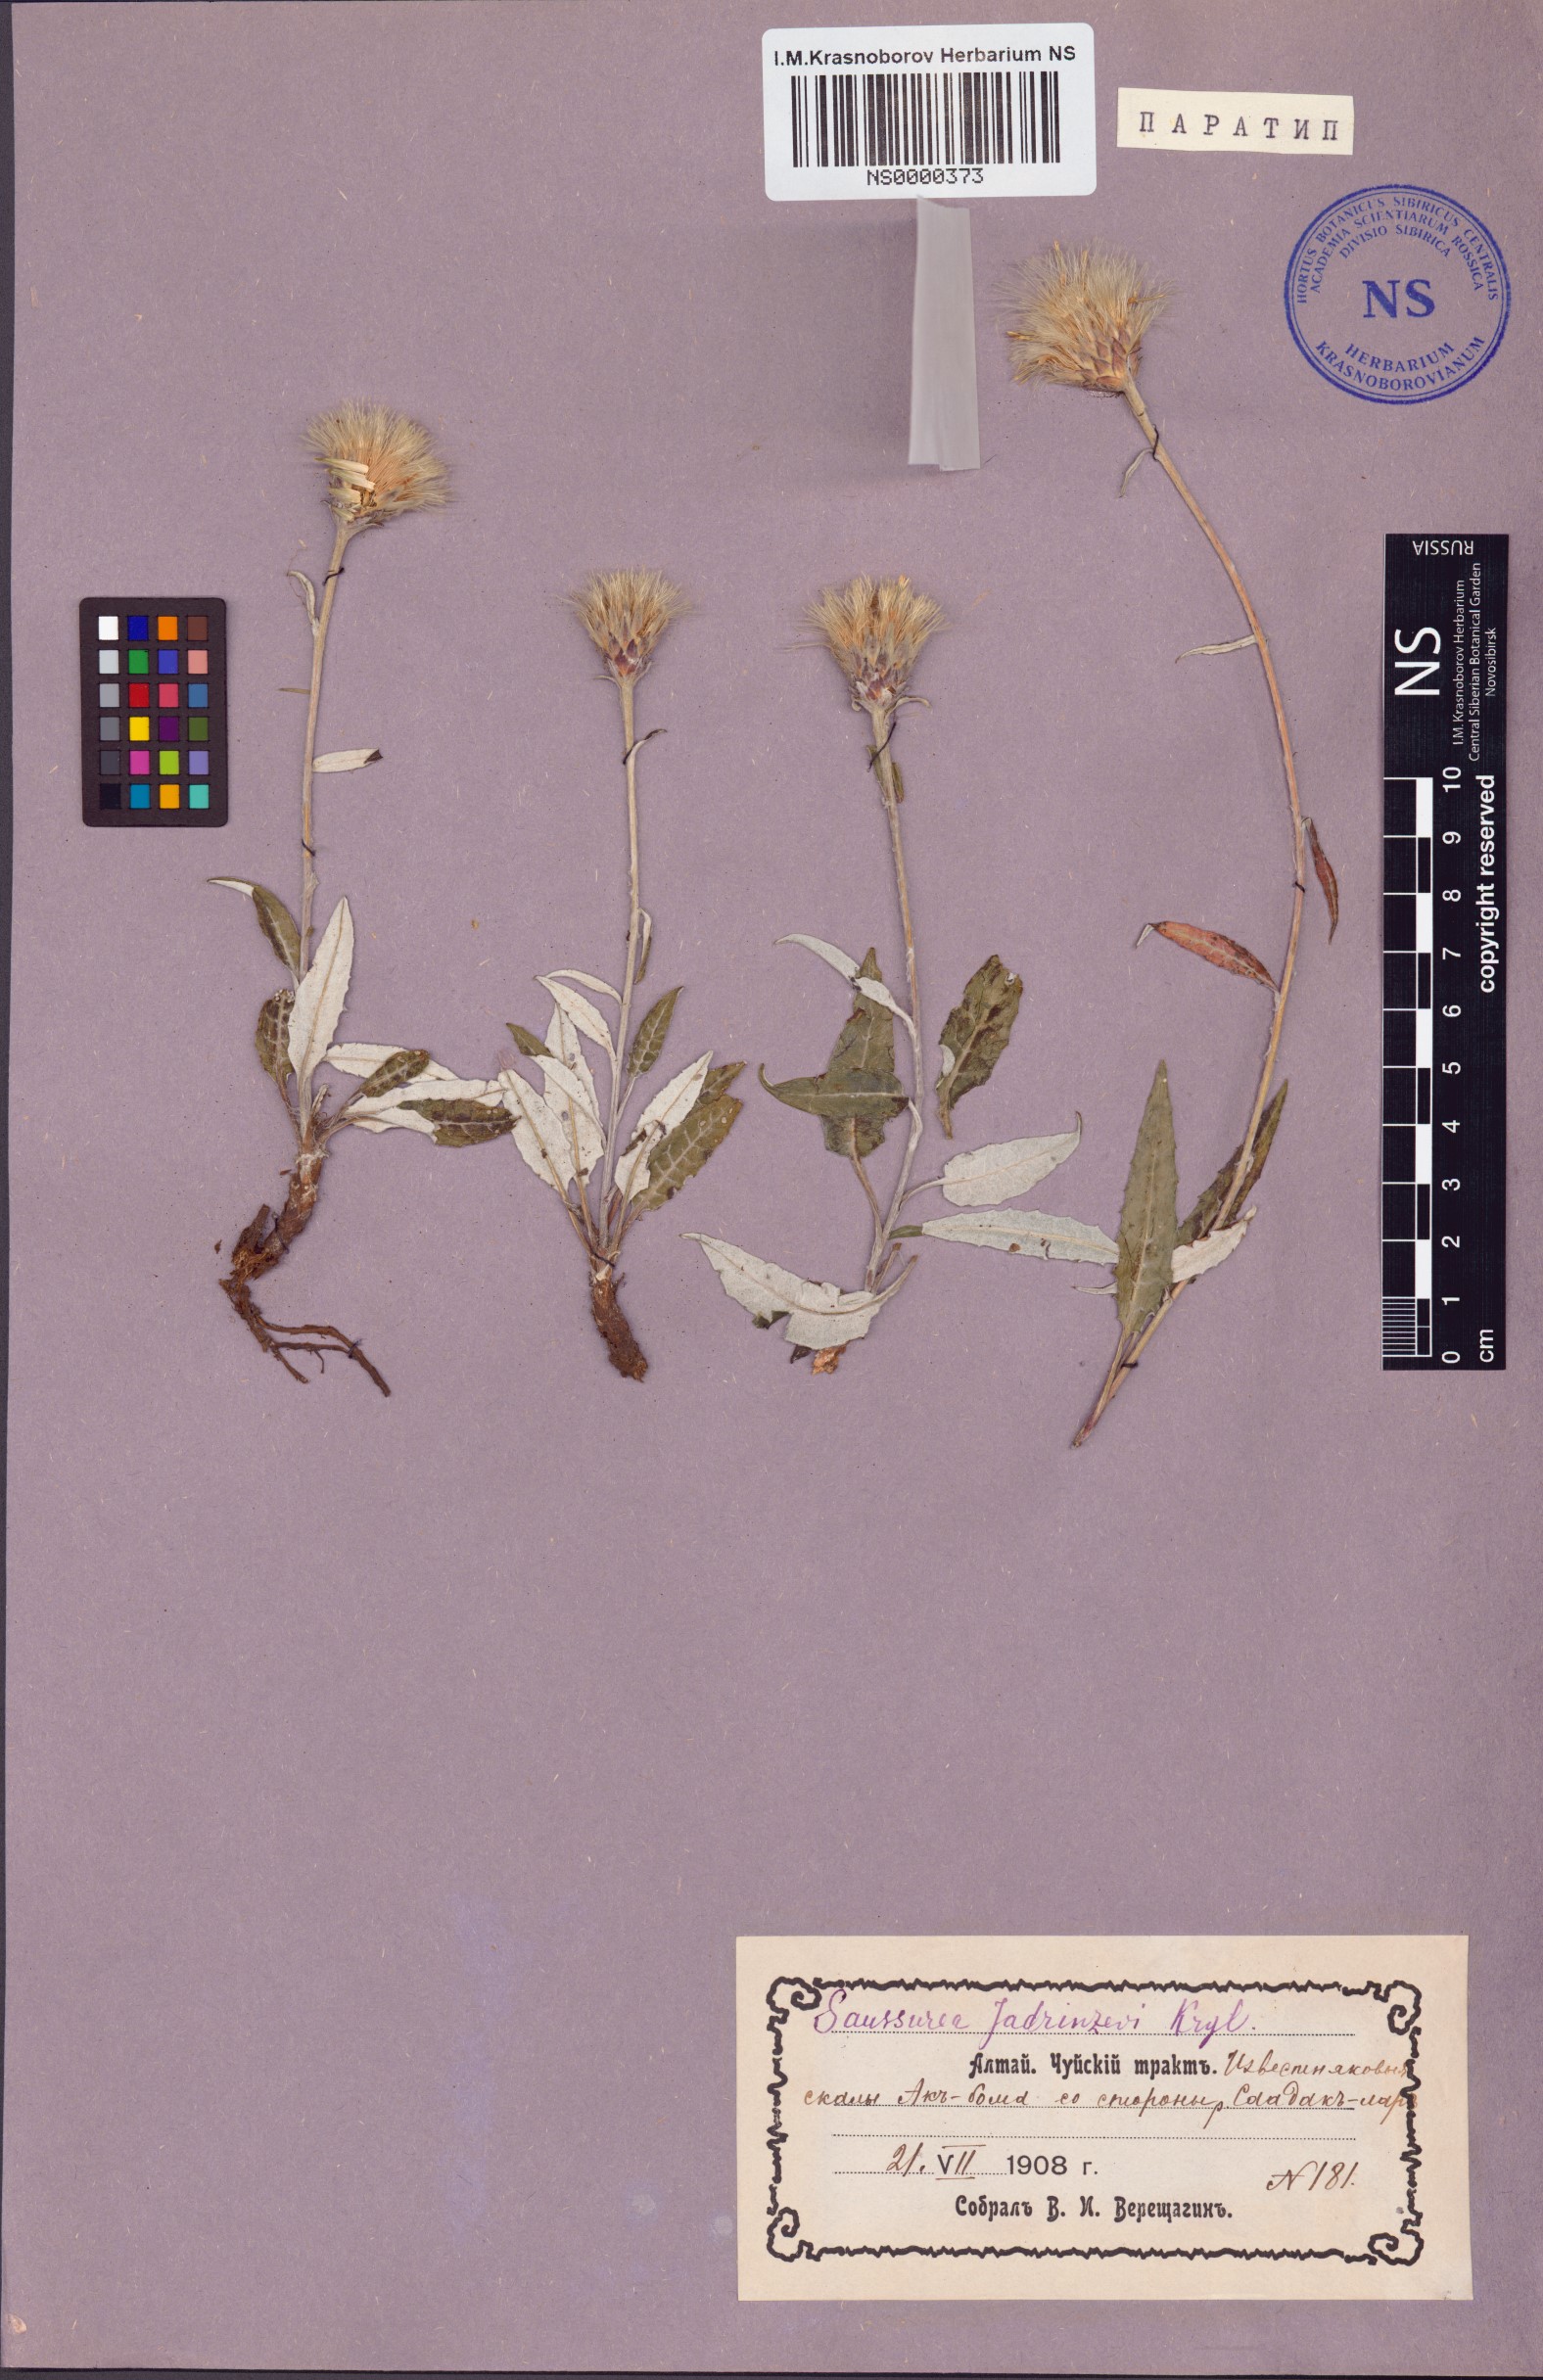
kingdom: Plantae
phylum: Tracheophyta
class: Magnoliopsida
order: Asterales
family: Asteraceae
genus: Saussurea
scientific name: Saussurea jadrinzevii
